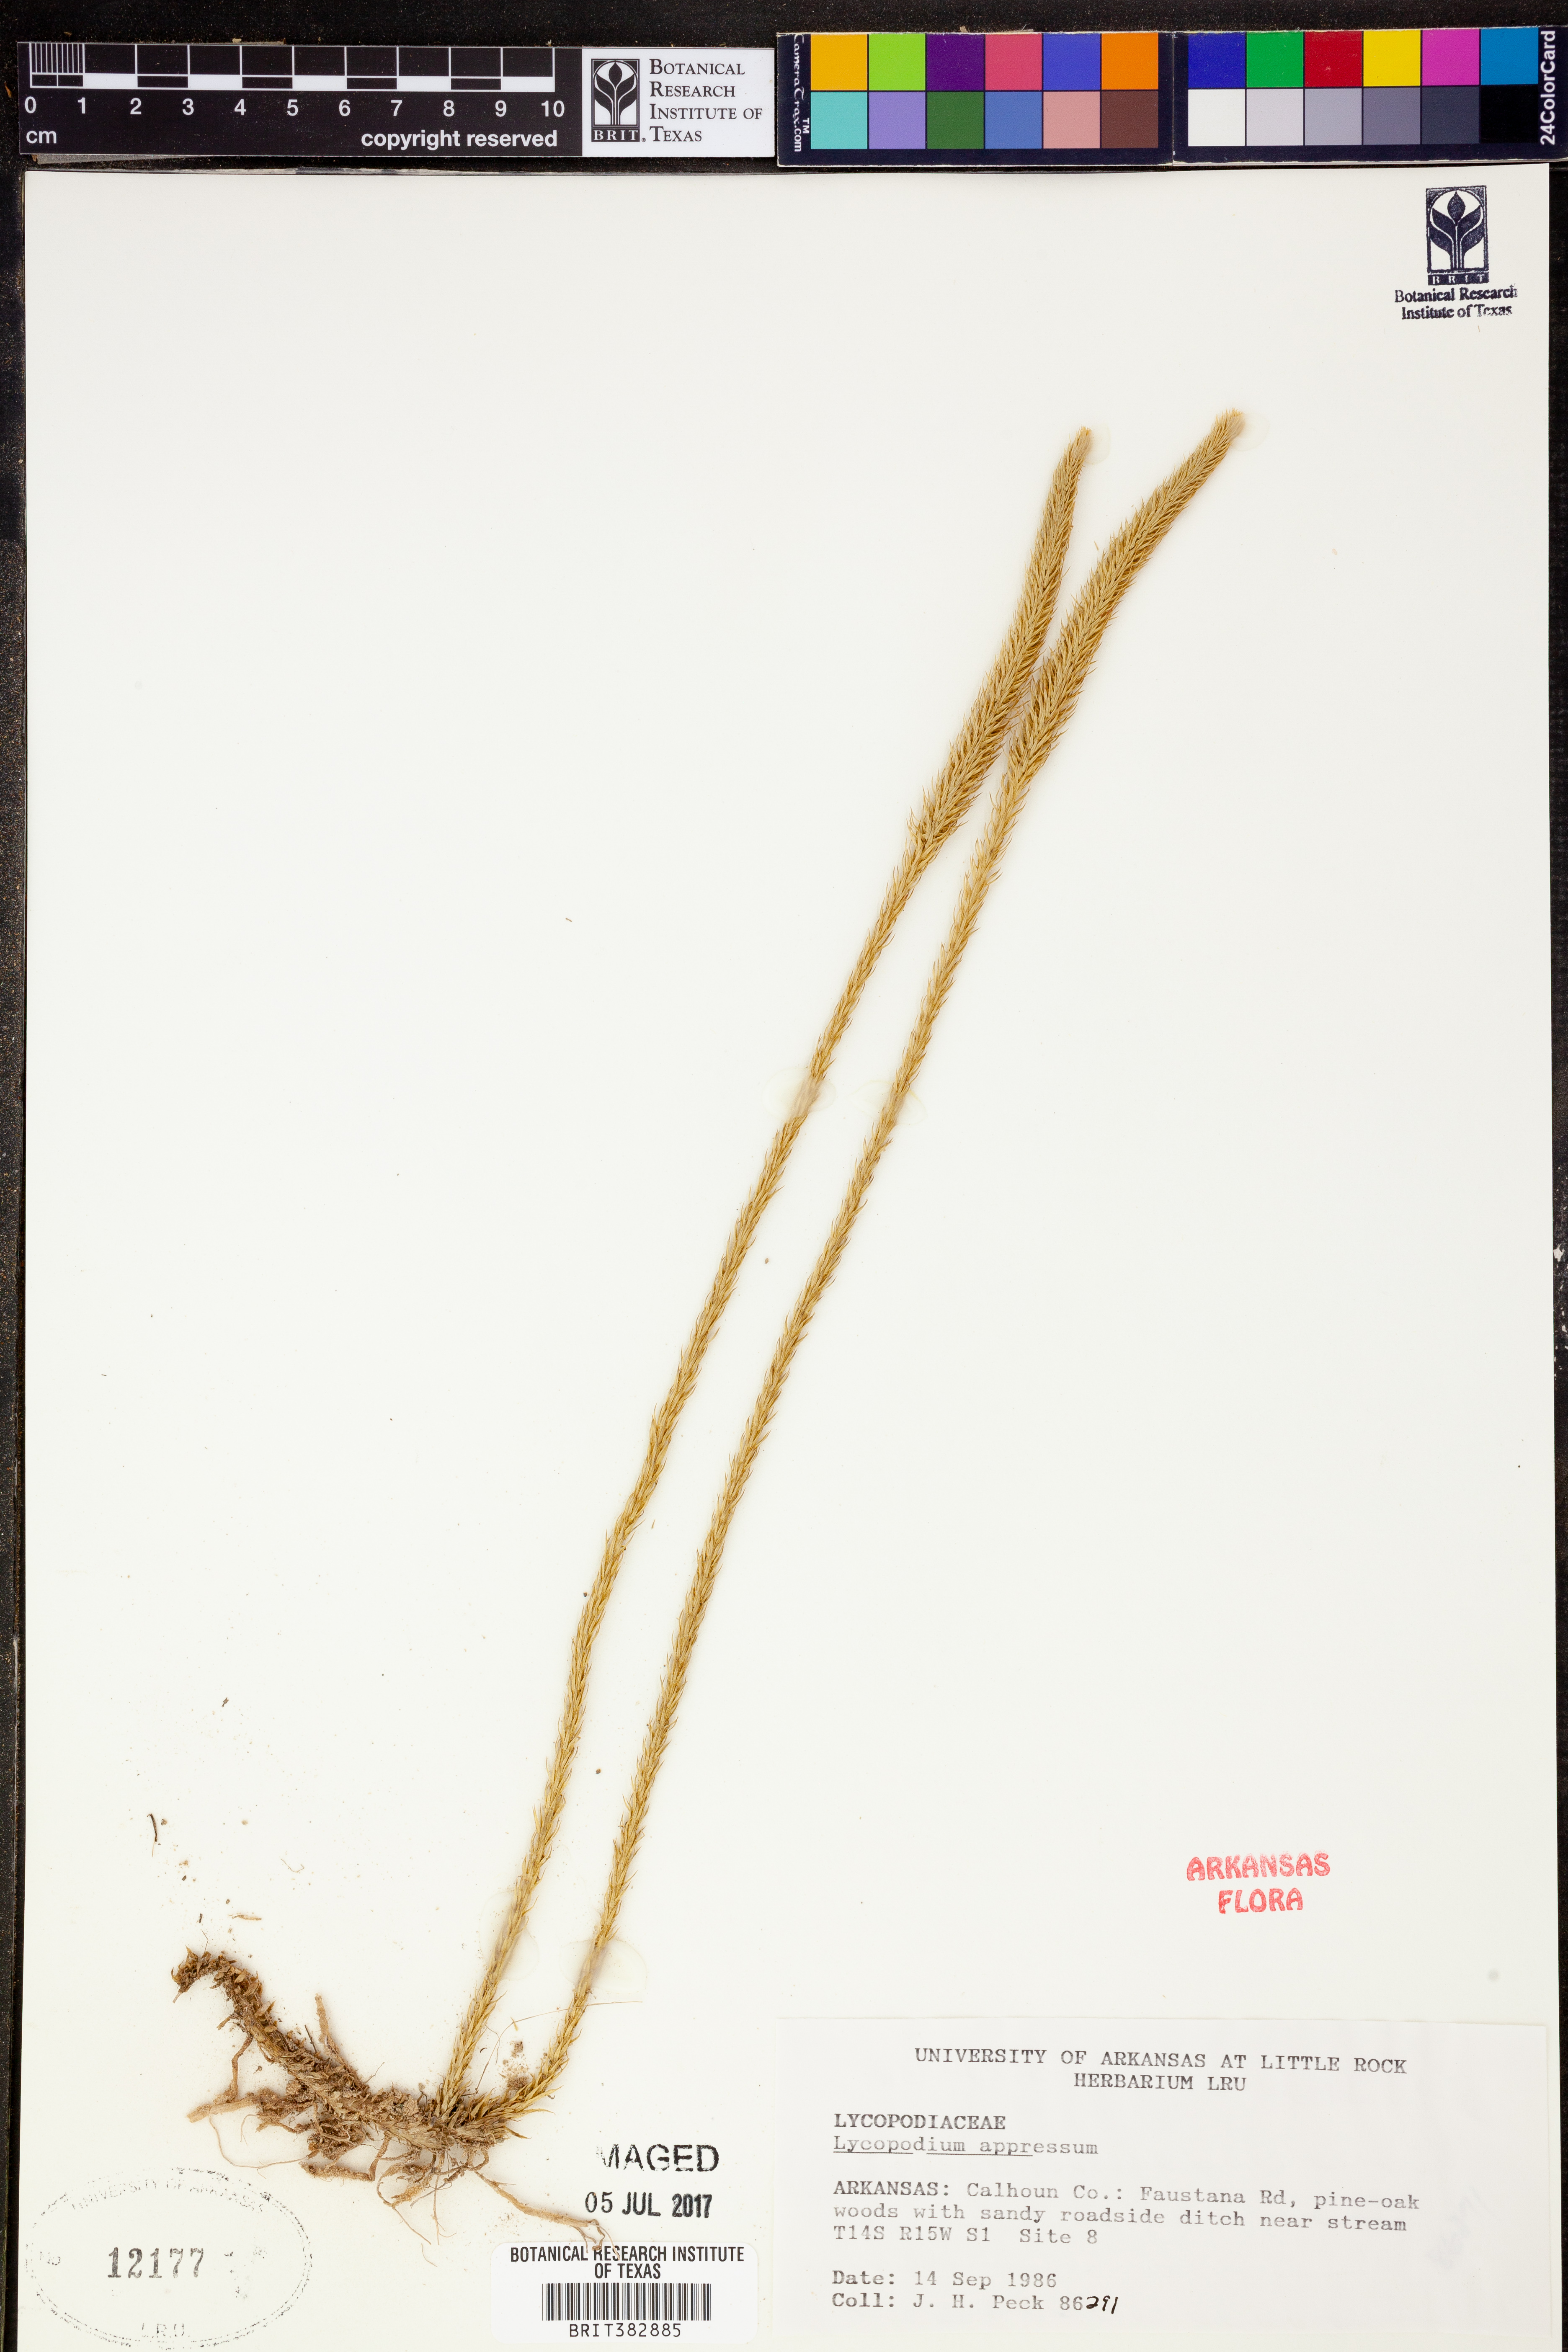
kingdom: Plantae
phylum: Tracheophyta
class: Lycopodiopsida
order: Lycopodiales
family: Lycopodiaceae
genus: Lycopodiella
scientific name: Lycopodiella appressa
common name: Appressed bog clubmoss
